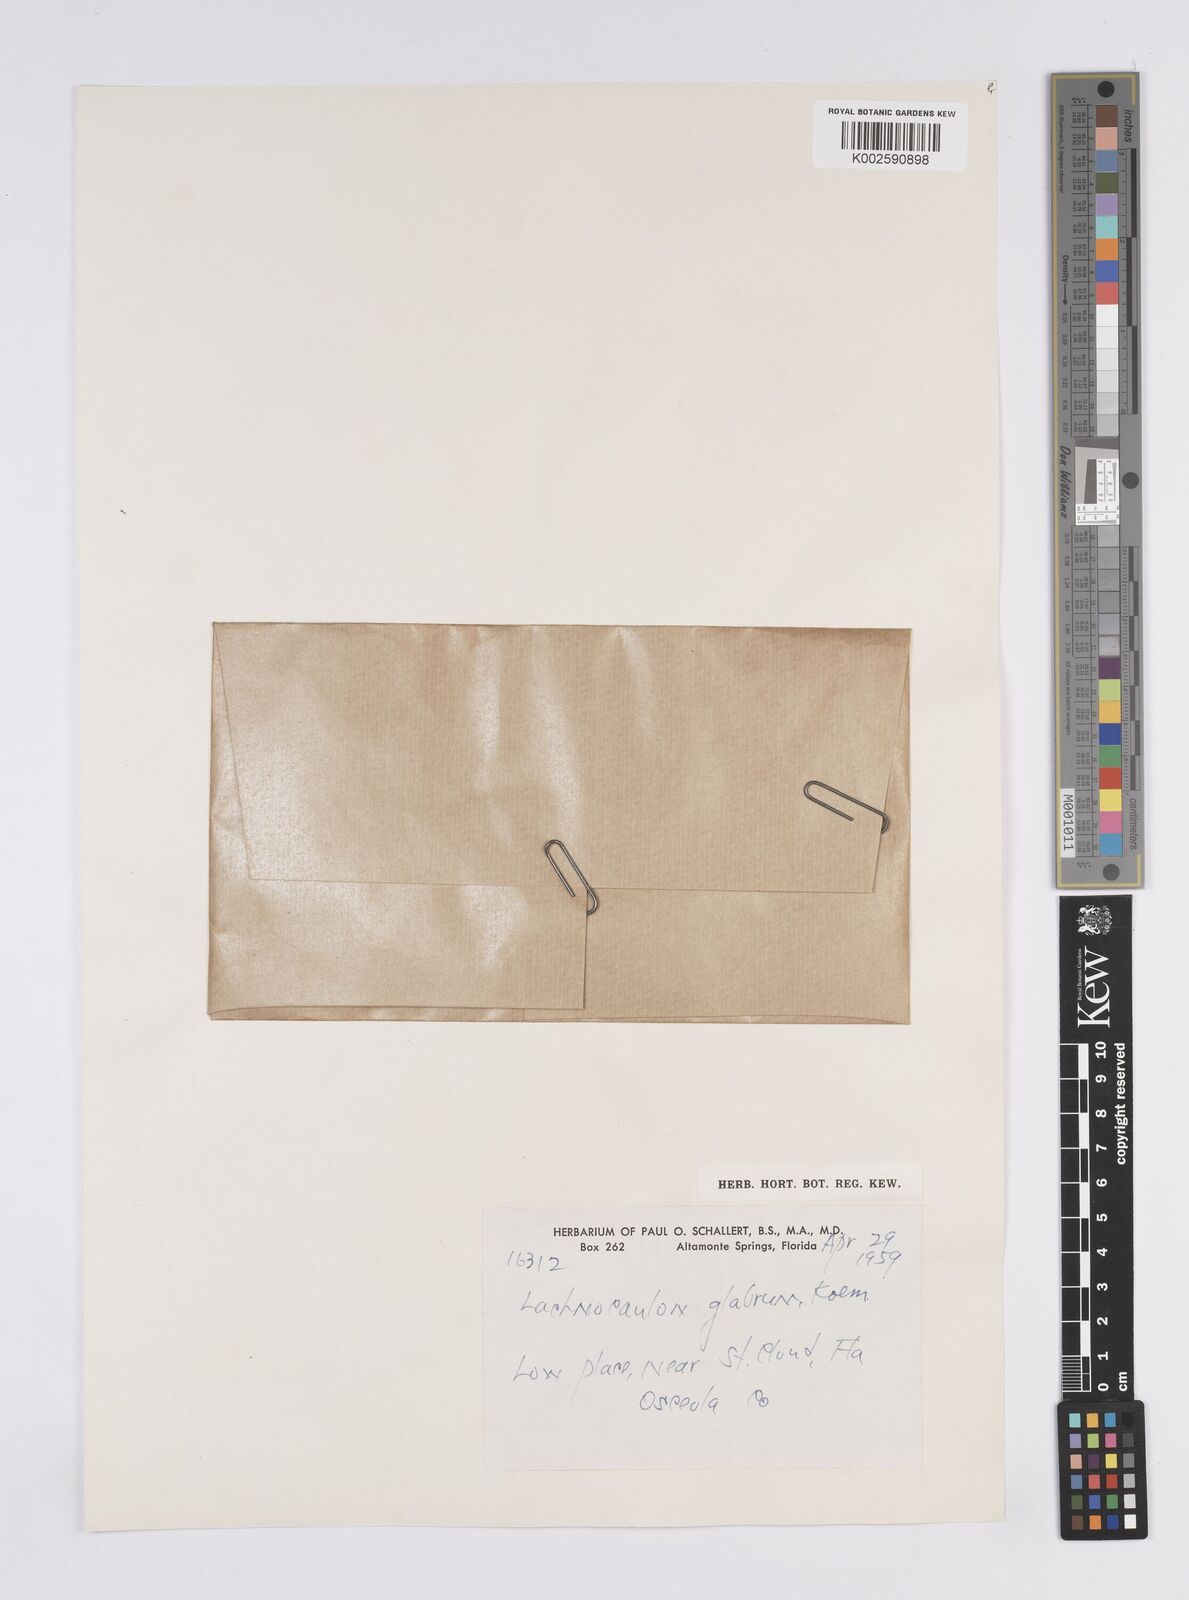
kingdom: Plantae
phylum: Tracheophyta
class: Liliopsida
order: Poales
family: Eriocaulaceae
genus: Paepalanthus
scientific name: Paepalanthus anceps
